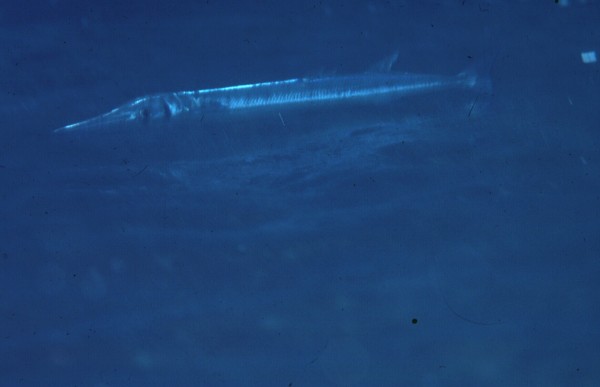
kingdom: Animalia
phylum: Chordata
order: Beloniformes
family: Belonidae
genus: Tylosurus
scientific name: Tylosurus crocodilus
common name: Houndfish
